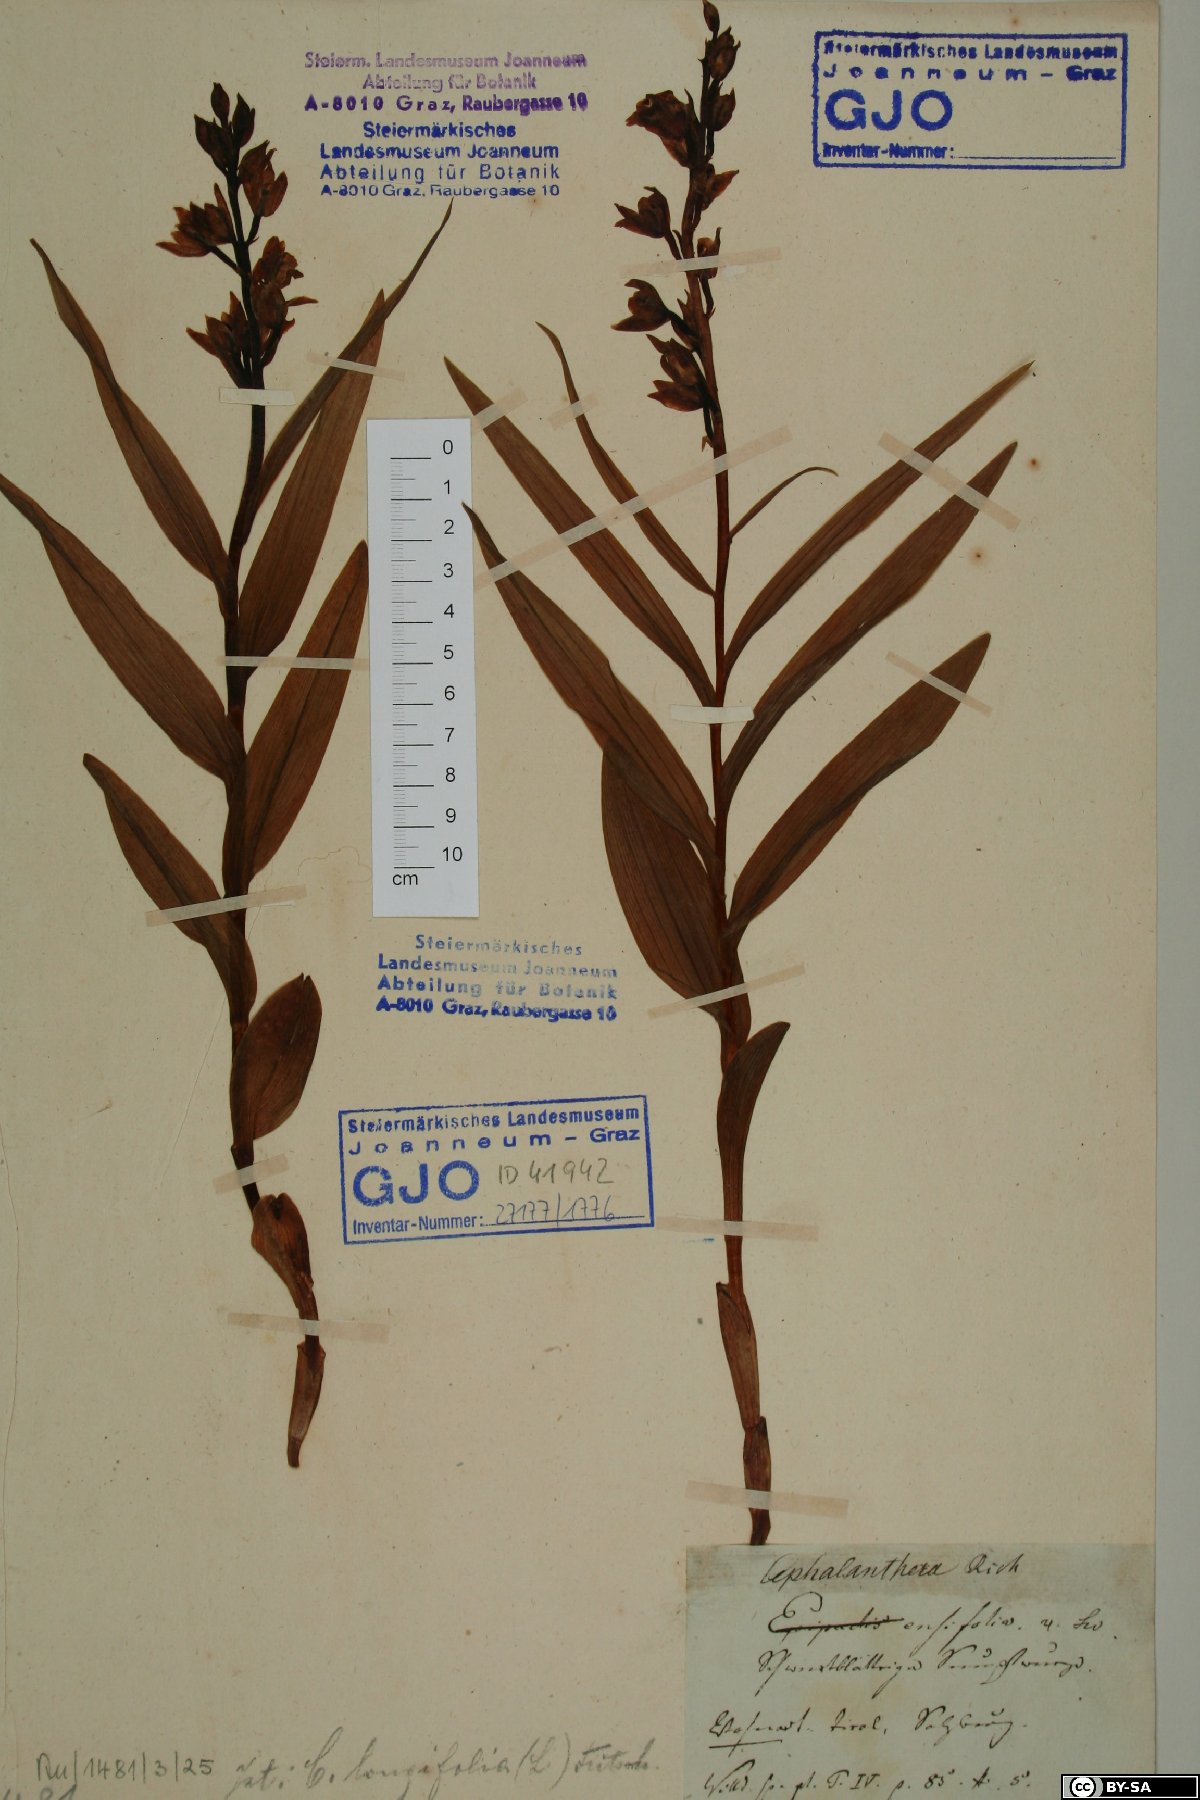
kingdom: Plantae
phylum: Tracheophyta
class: Liliopsida
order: Asparagales
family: Orchidaceae
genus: Cephalanthera
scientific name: Cephalanthera longifolia
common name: Narrow-leaved helleborine
